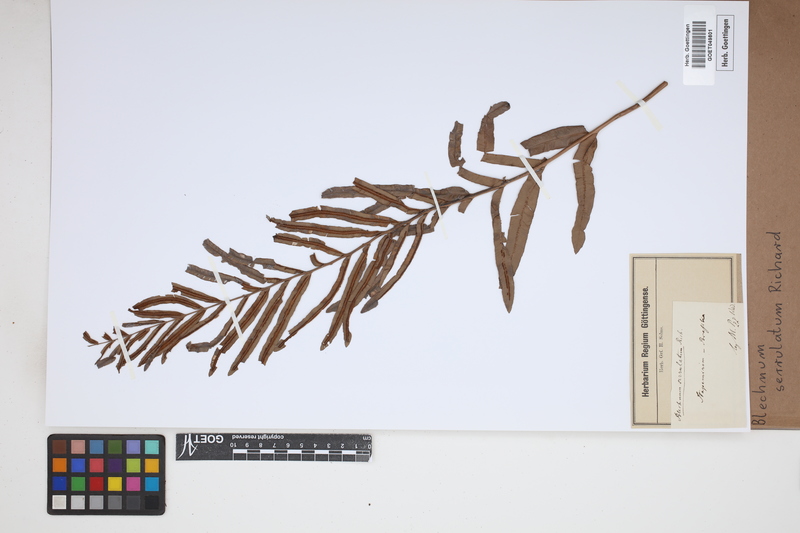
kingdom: Plantae
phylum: Tracheophyta
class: Polypodiopsida
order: Polypodiales
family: Blechnaceae
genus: Telmatoblechnum
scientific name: Telmatoblechnum serrulatum
